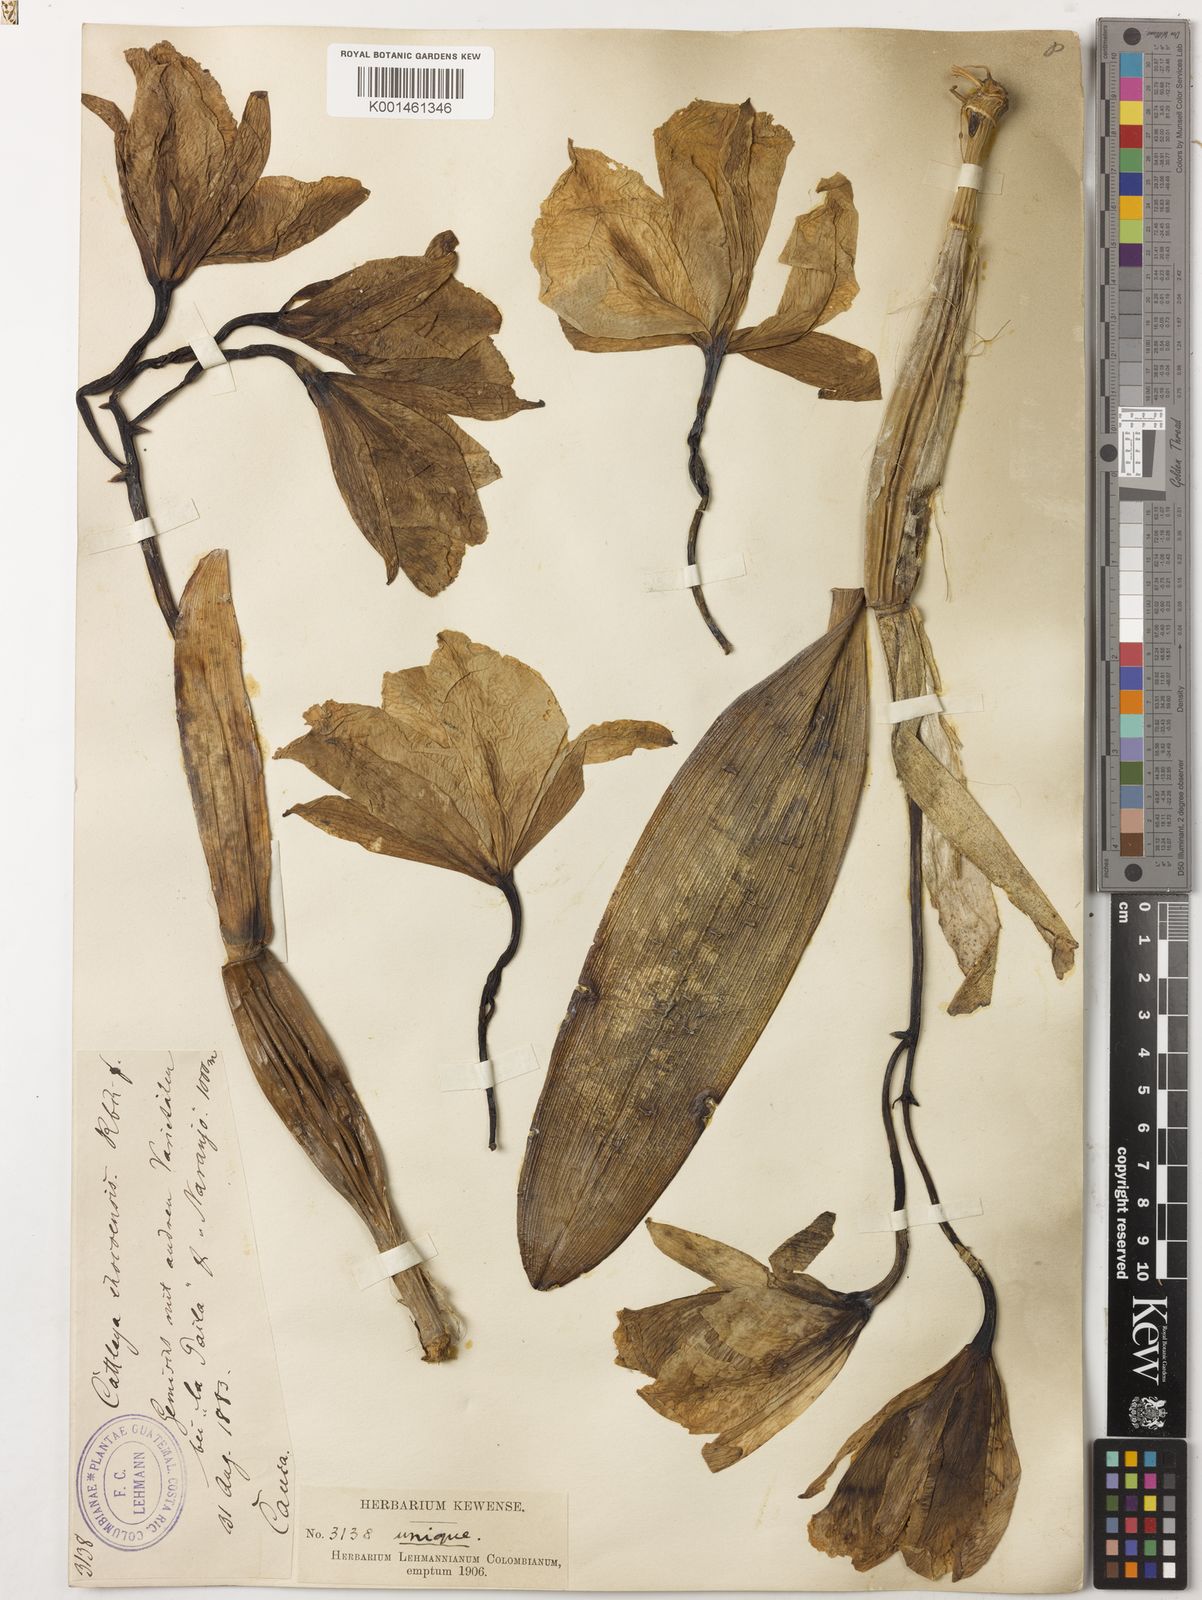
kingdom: Plantae
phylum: Tracheophyta
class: Liliopsida
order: Asparagales
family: Orchidaceae
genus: Cattleya
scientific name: Cattleya
